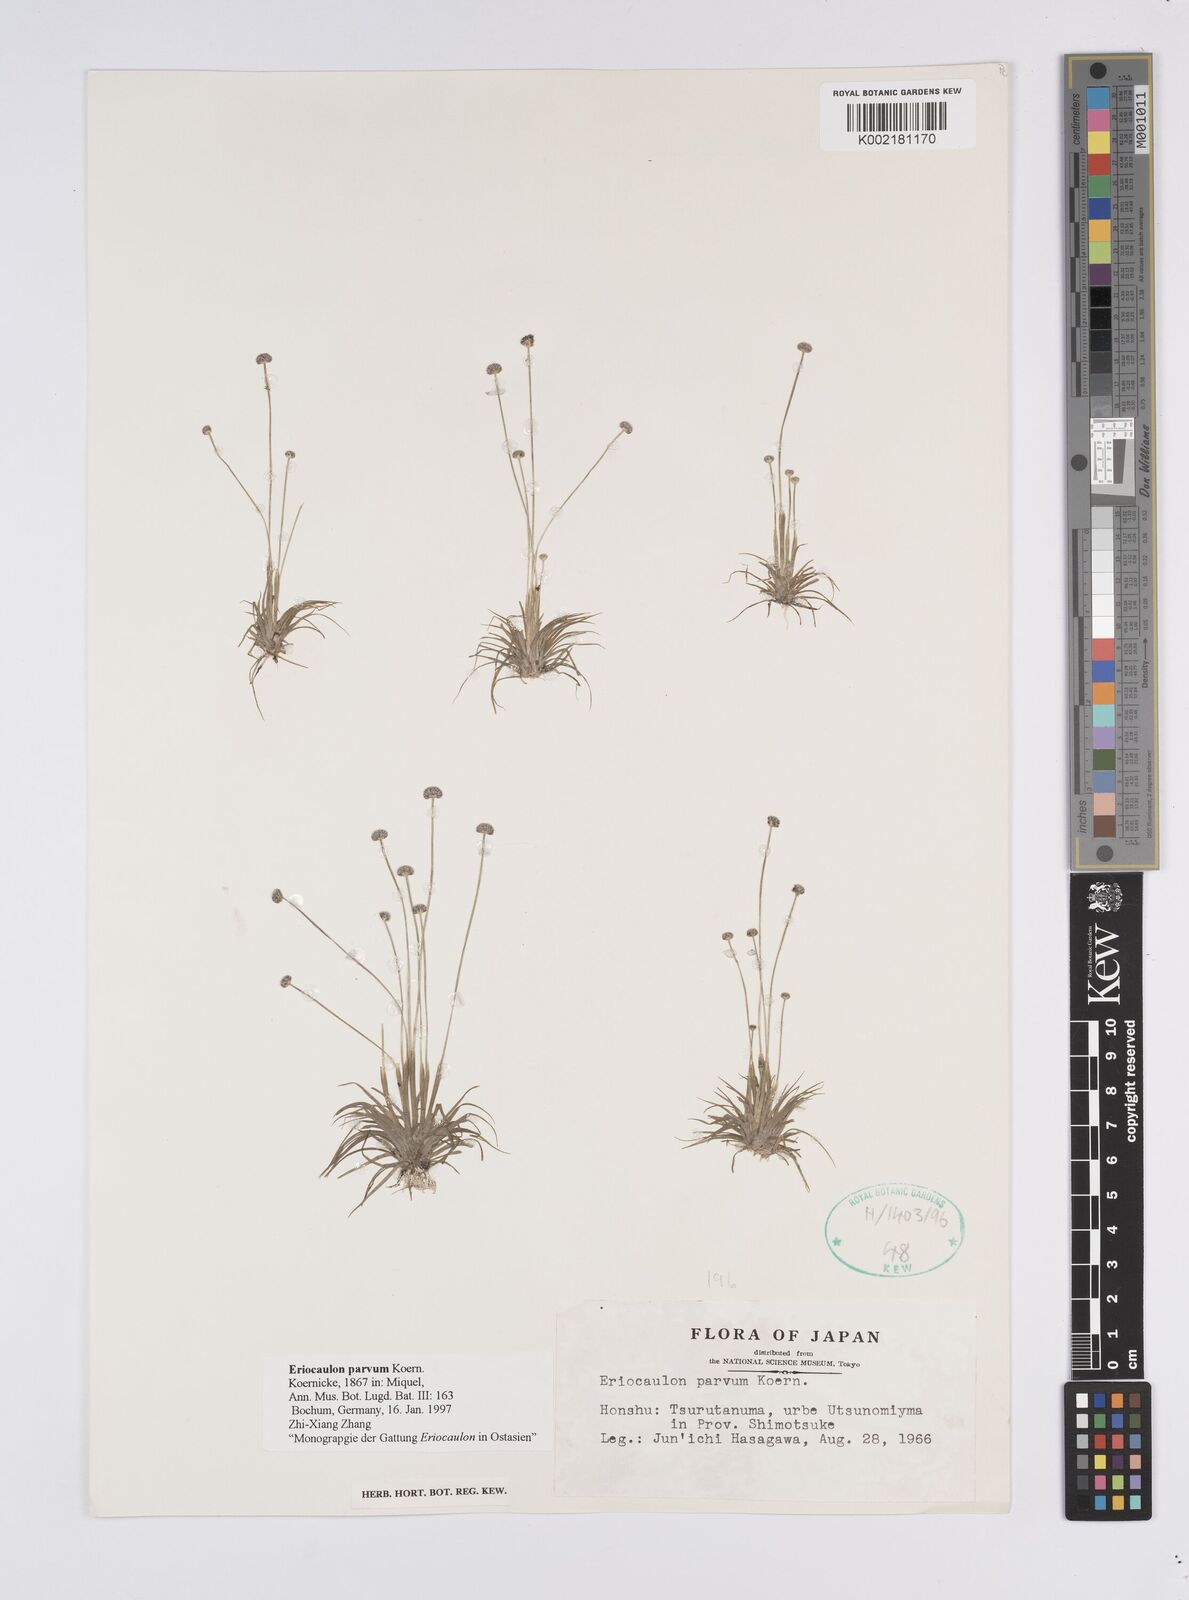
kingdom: Plantae
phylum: Tracheophyta
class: Liliopsida
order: Poales
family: Eriocaulaceae
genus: Eriocaulon
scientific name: Eriocaulon parvum
